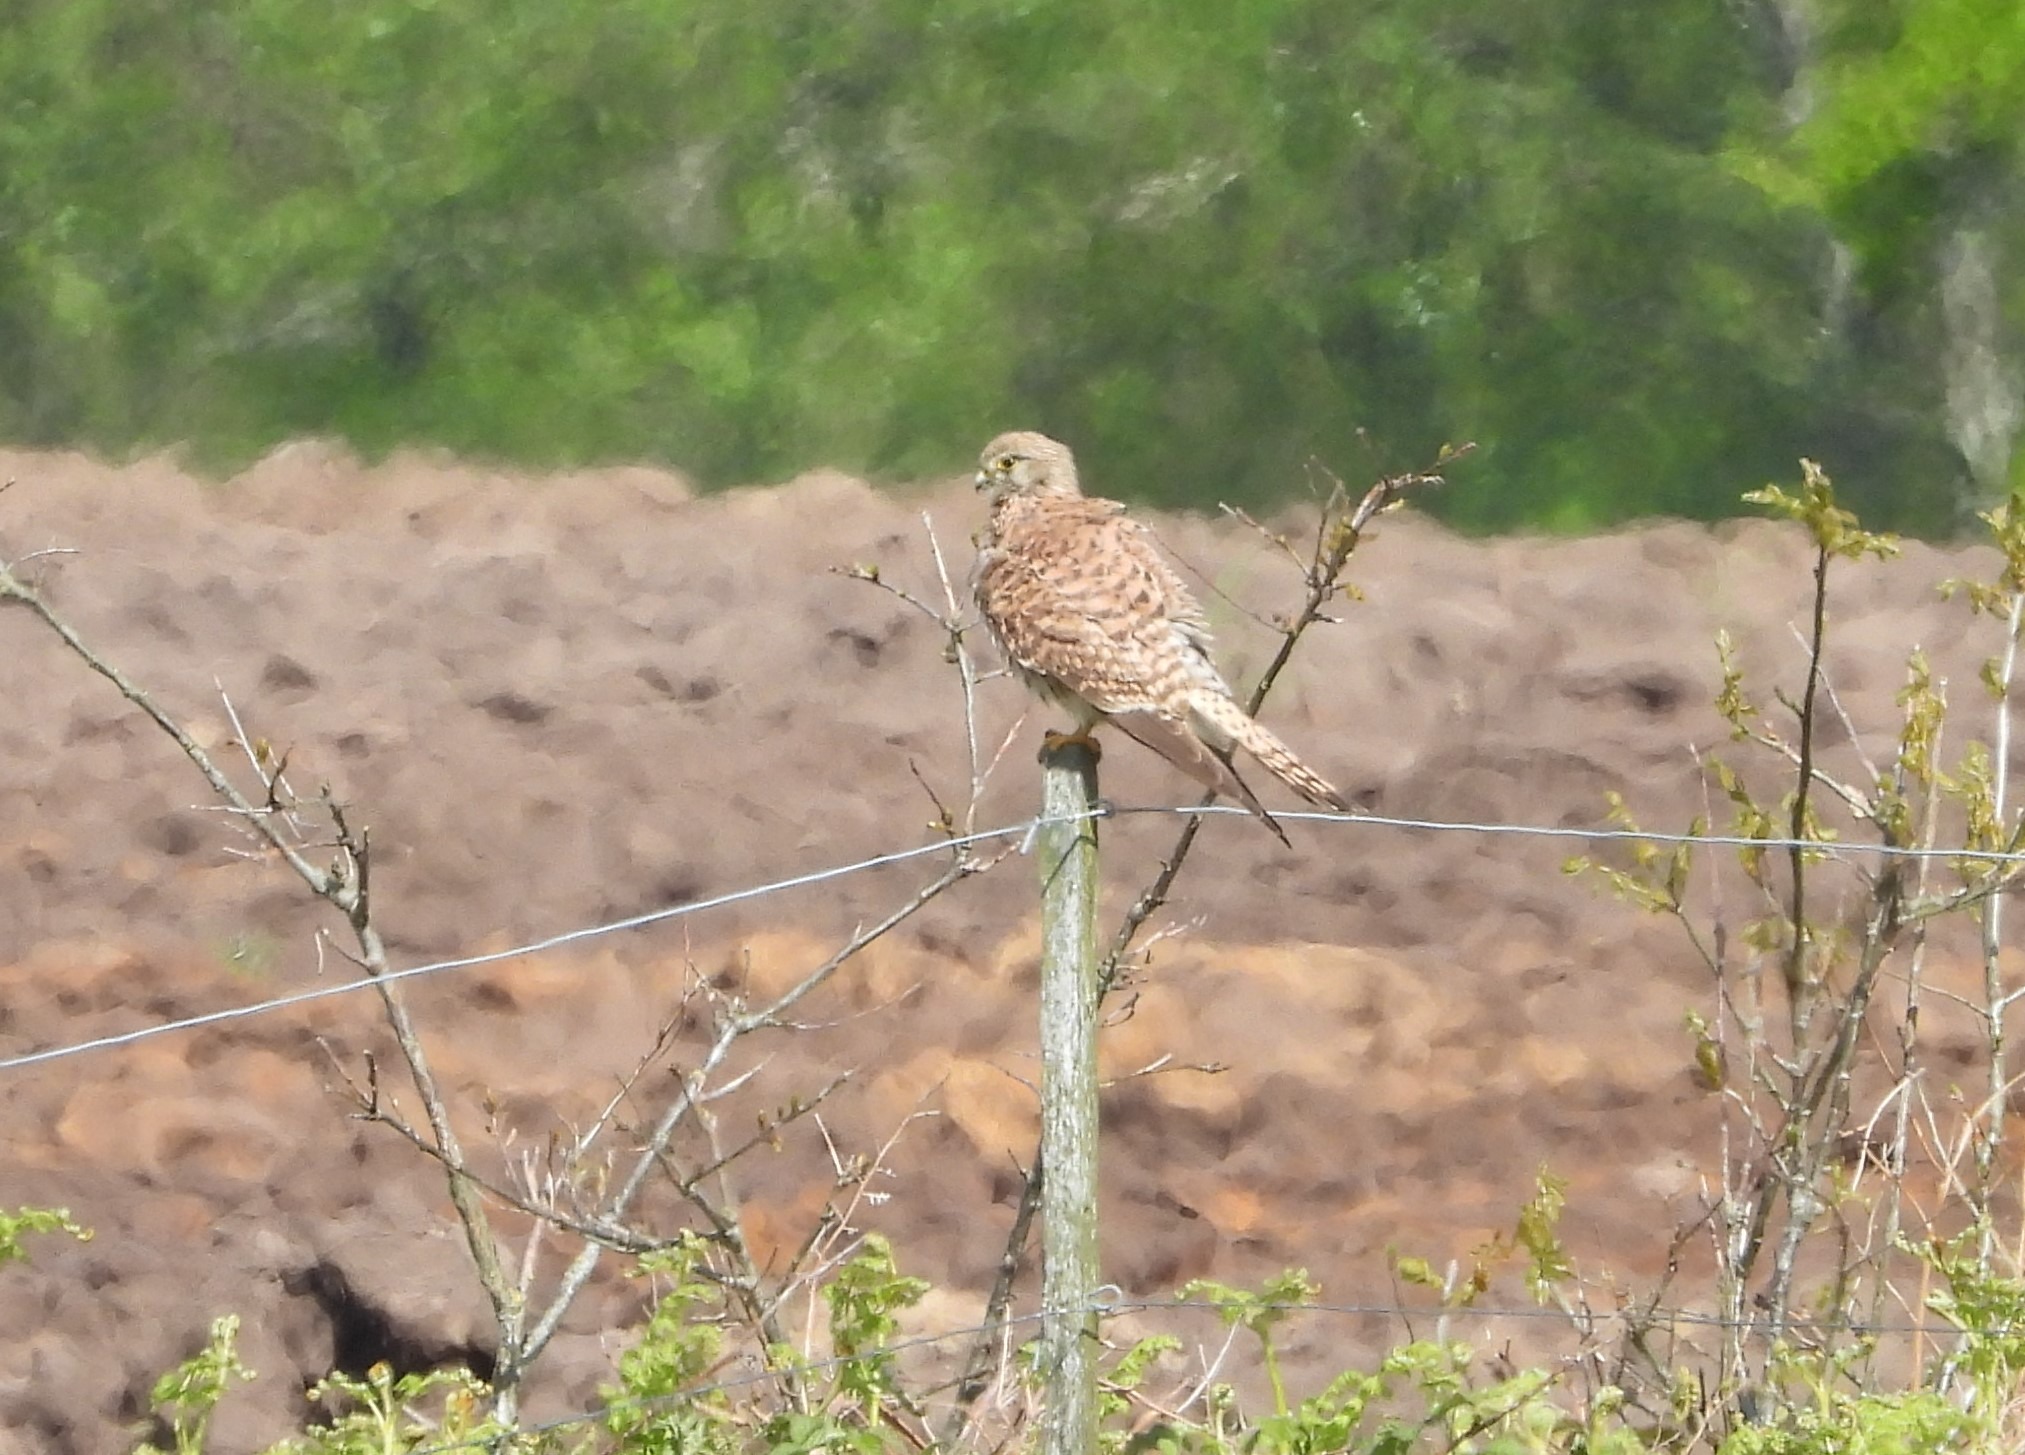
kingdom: Animalia
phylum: Chordata
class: Aves
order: Falconiformes
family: Falconidae
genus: Falco
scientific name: Falco tinnunculus
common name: Tårnfalk
